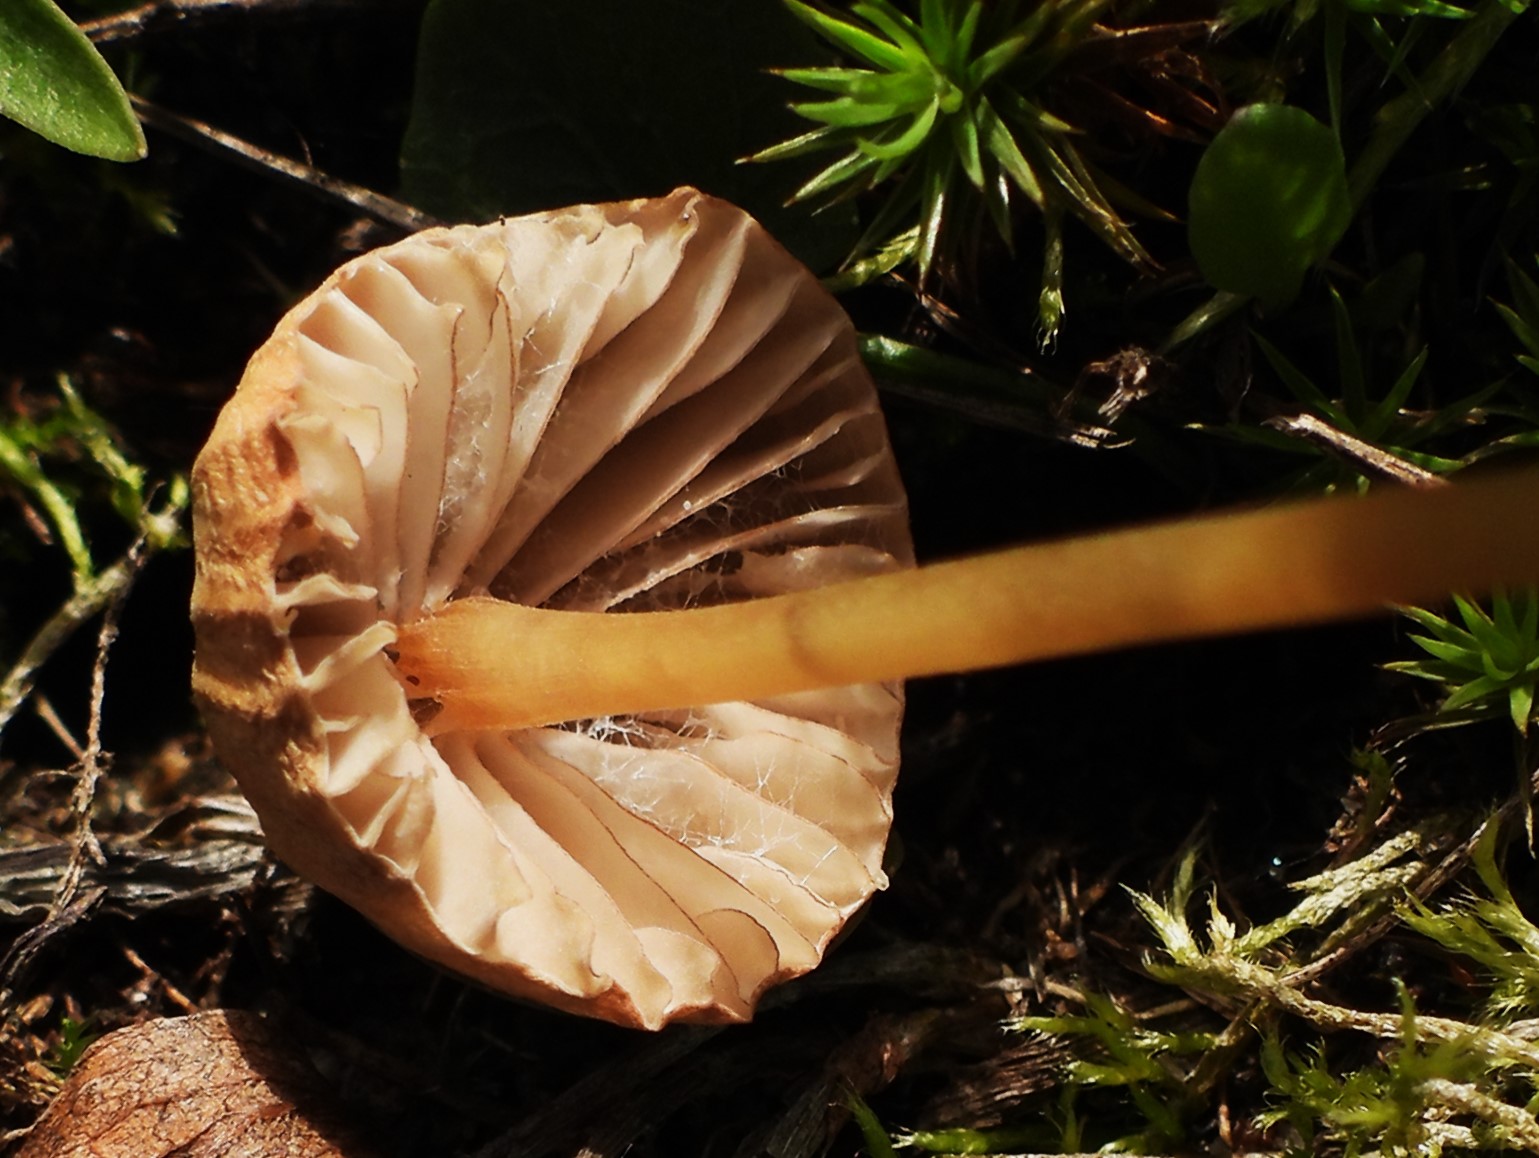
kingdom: Fungi
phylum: Basidiomycota
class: Agaricomycetes
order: Agaricales
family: Mycenaceae
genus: Mycena
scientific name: Mycena olivaceomarginata
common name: brunægget huesvamp
